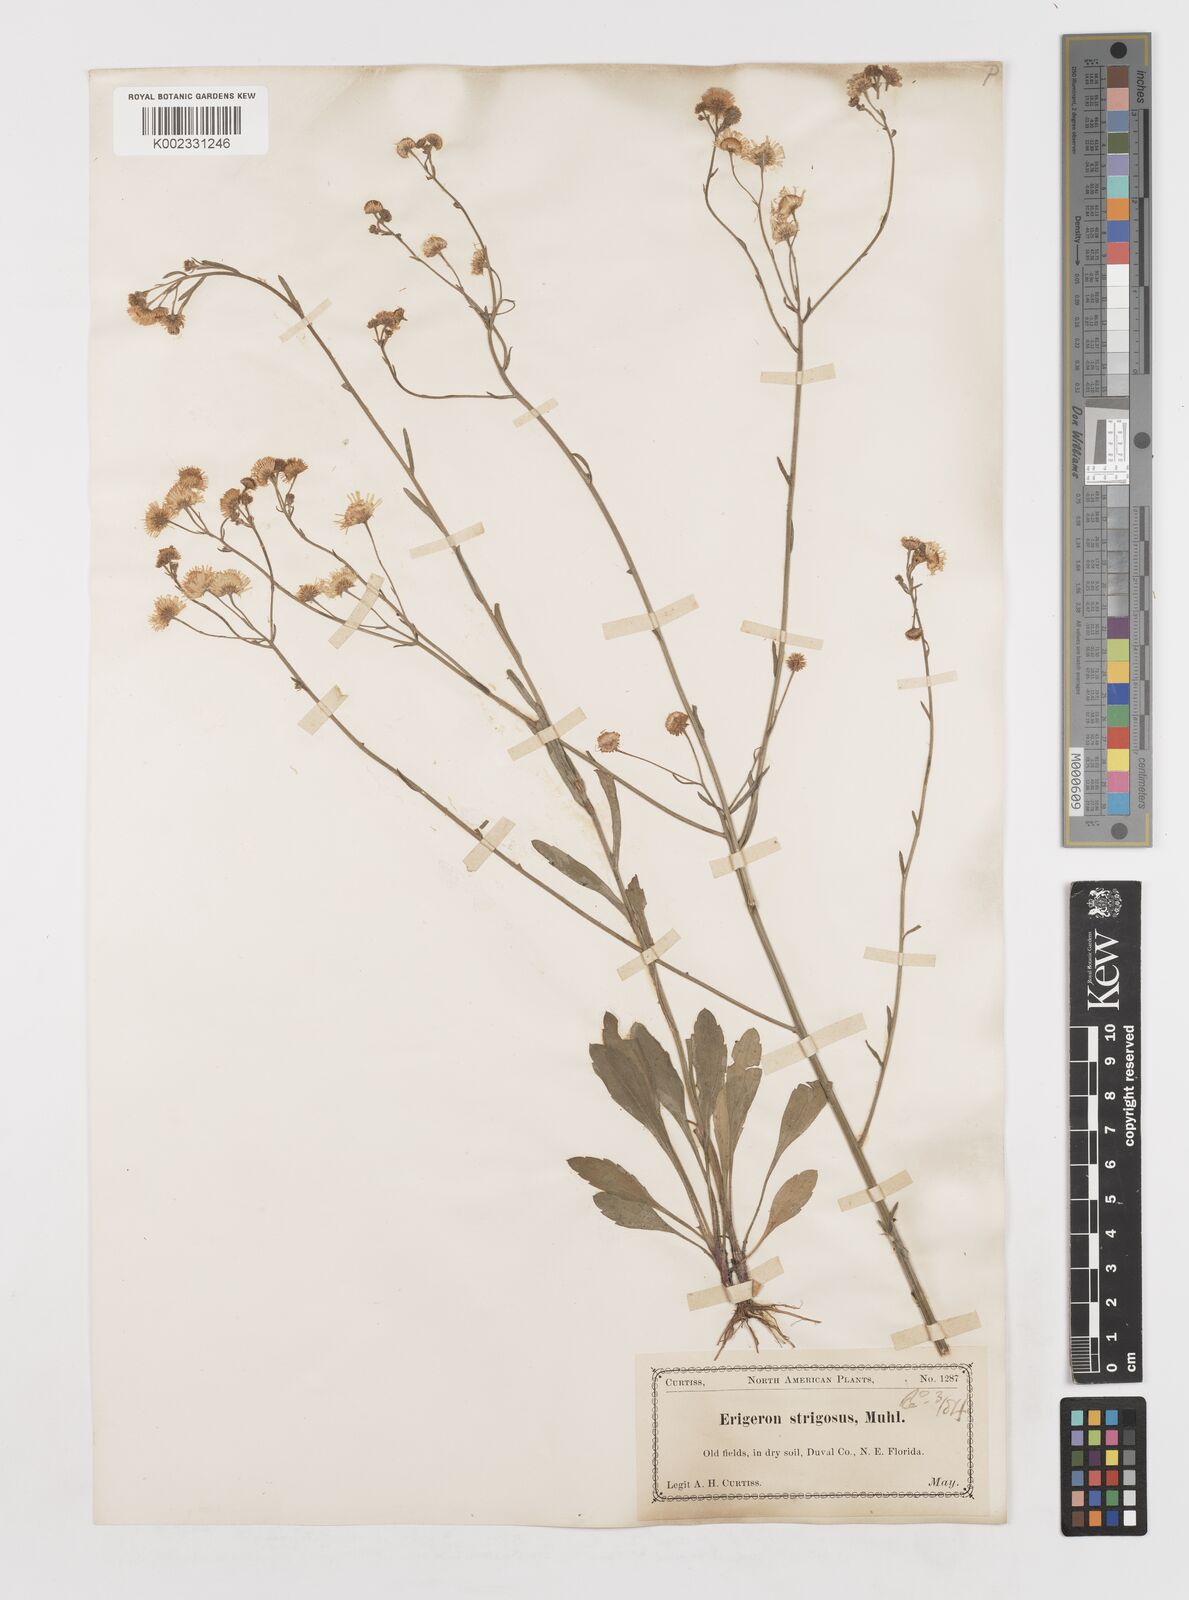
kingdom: Plantae
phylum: Tracheophyta
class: Magnoliopsida
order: Asterales
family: Asteraceae
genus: Erigeron
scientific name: Erigeron strigosus
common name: Common eastern fleabane
